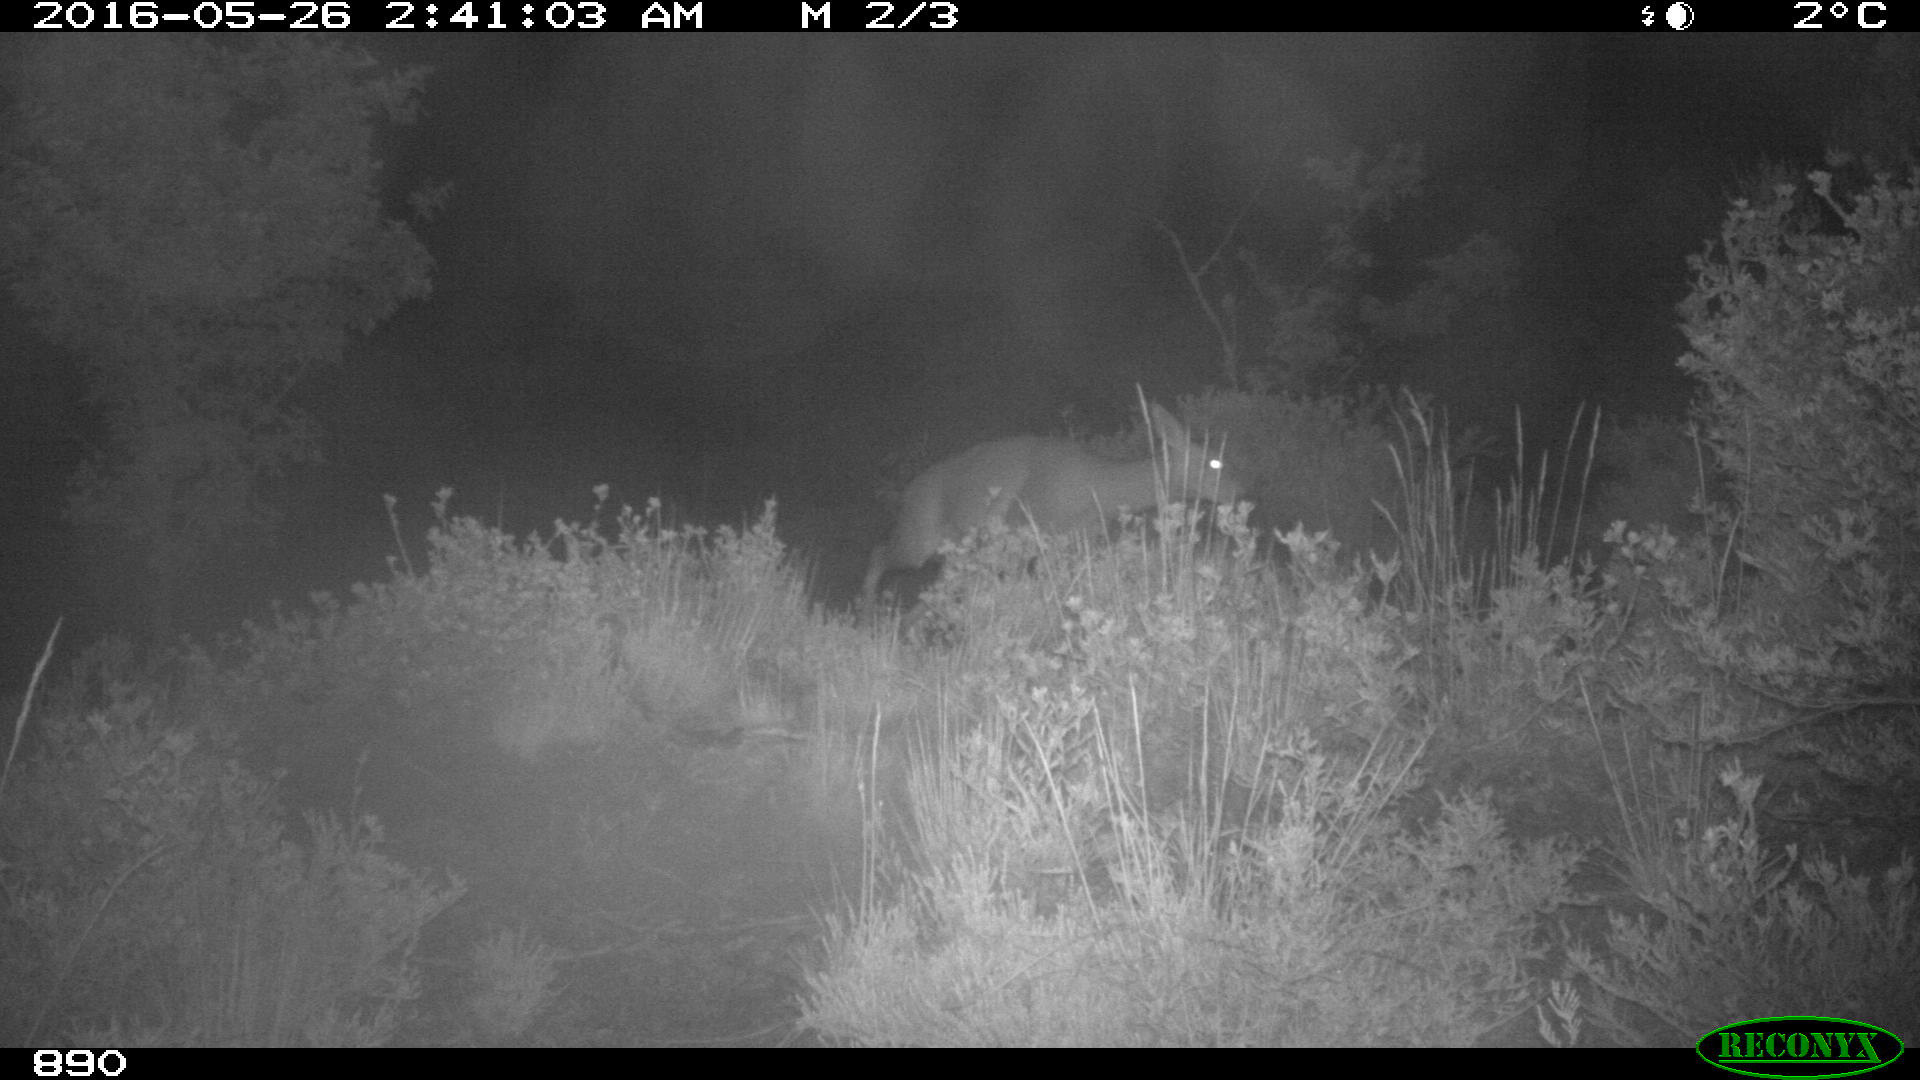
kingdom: Animalia
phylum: Chordata
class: Mammalia
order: Artiodactyla
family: Cervidae
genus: Capreolus
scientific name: Capreolus capreolus
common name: Western roe deer
